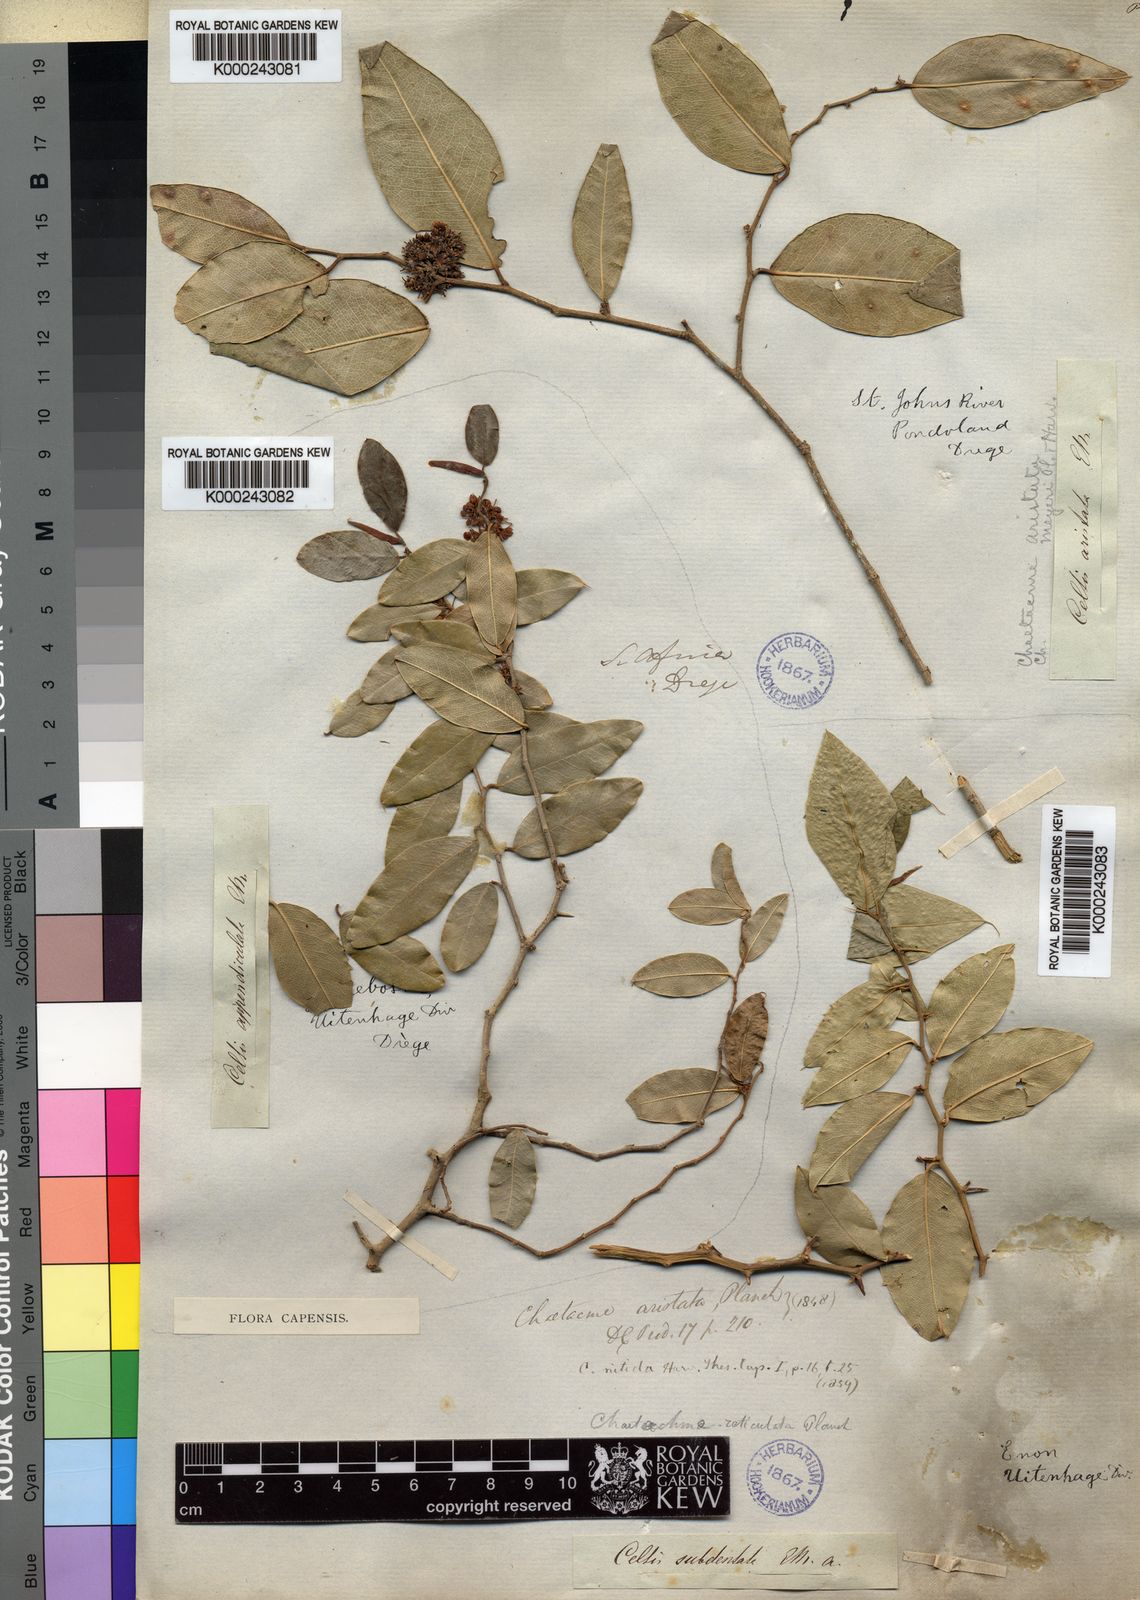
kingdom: Plantae
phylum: Tracheophyta
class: Magnoliopsida
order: Rosales
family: Cannabaceae
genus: Chaetachme
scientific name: Chaetachme aristata
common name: Thorny elm
